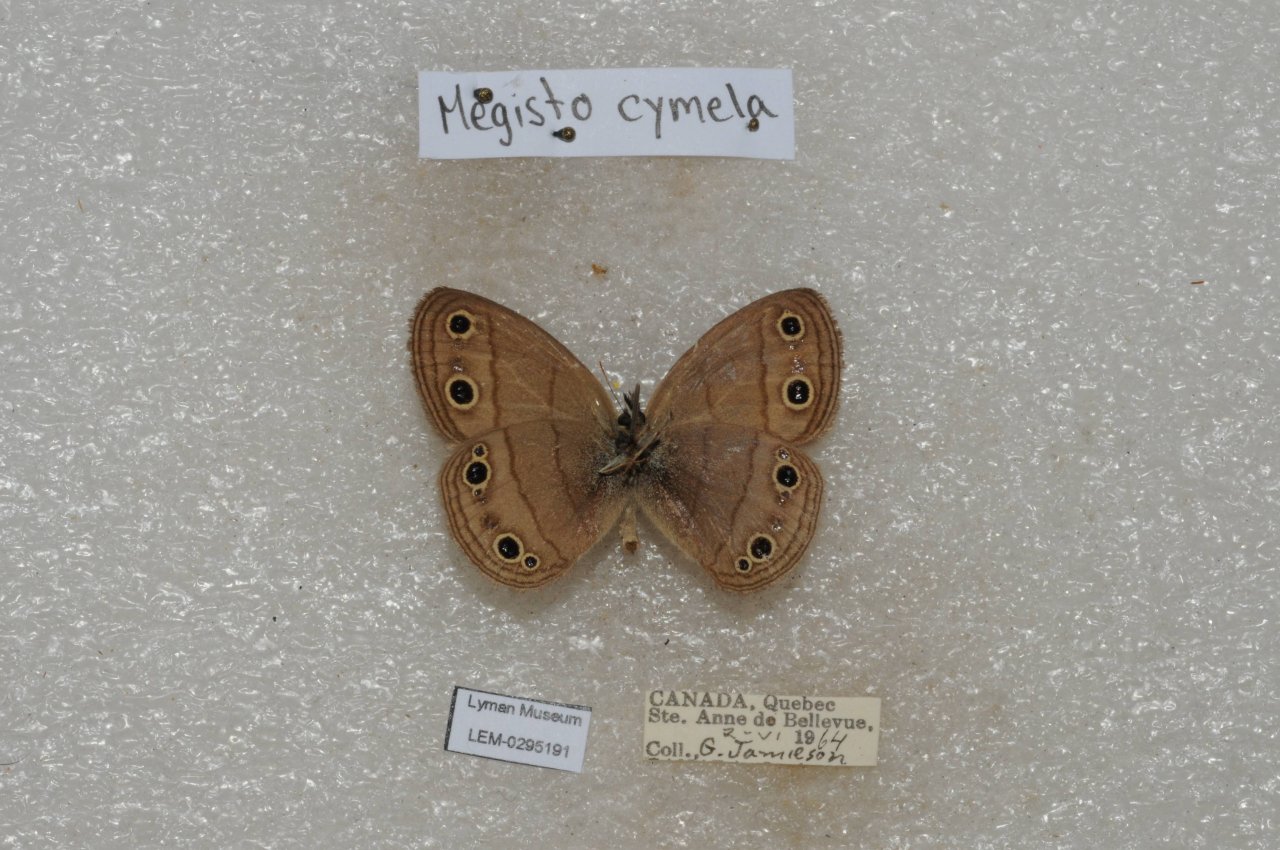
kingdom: Animalia
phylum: Arthropoda
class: Insecta
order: Lepidoptera
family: Nymphalidae
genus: Euptychia
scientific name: Euptychia cymela
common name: Little Wood Satyr
